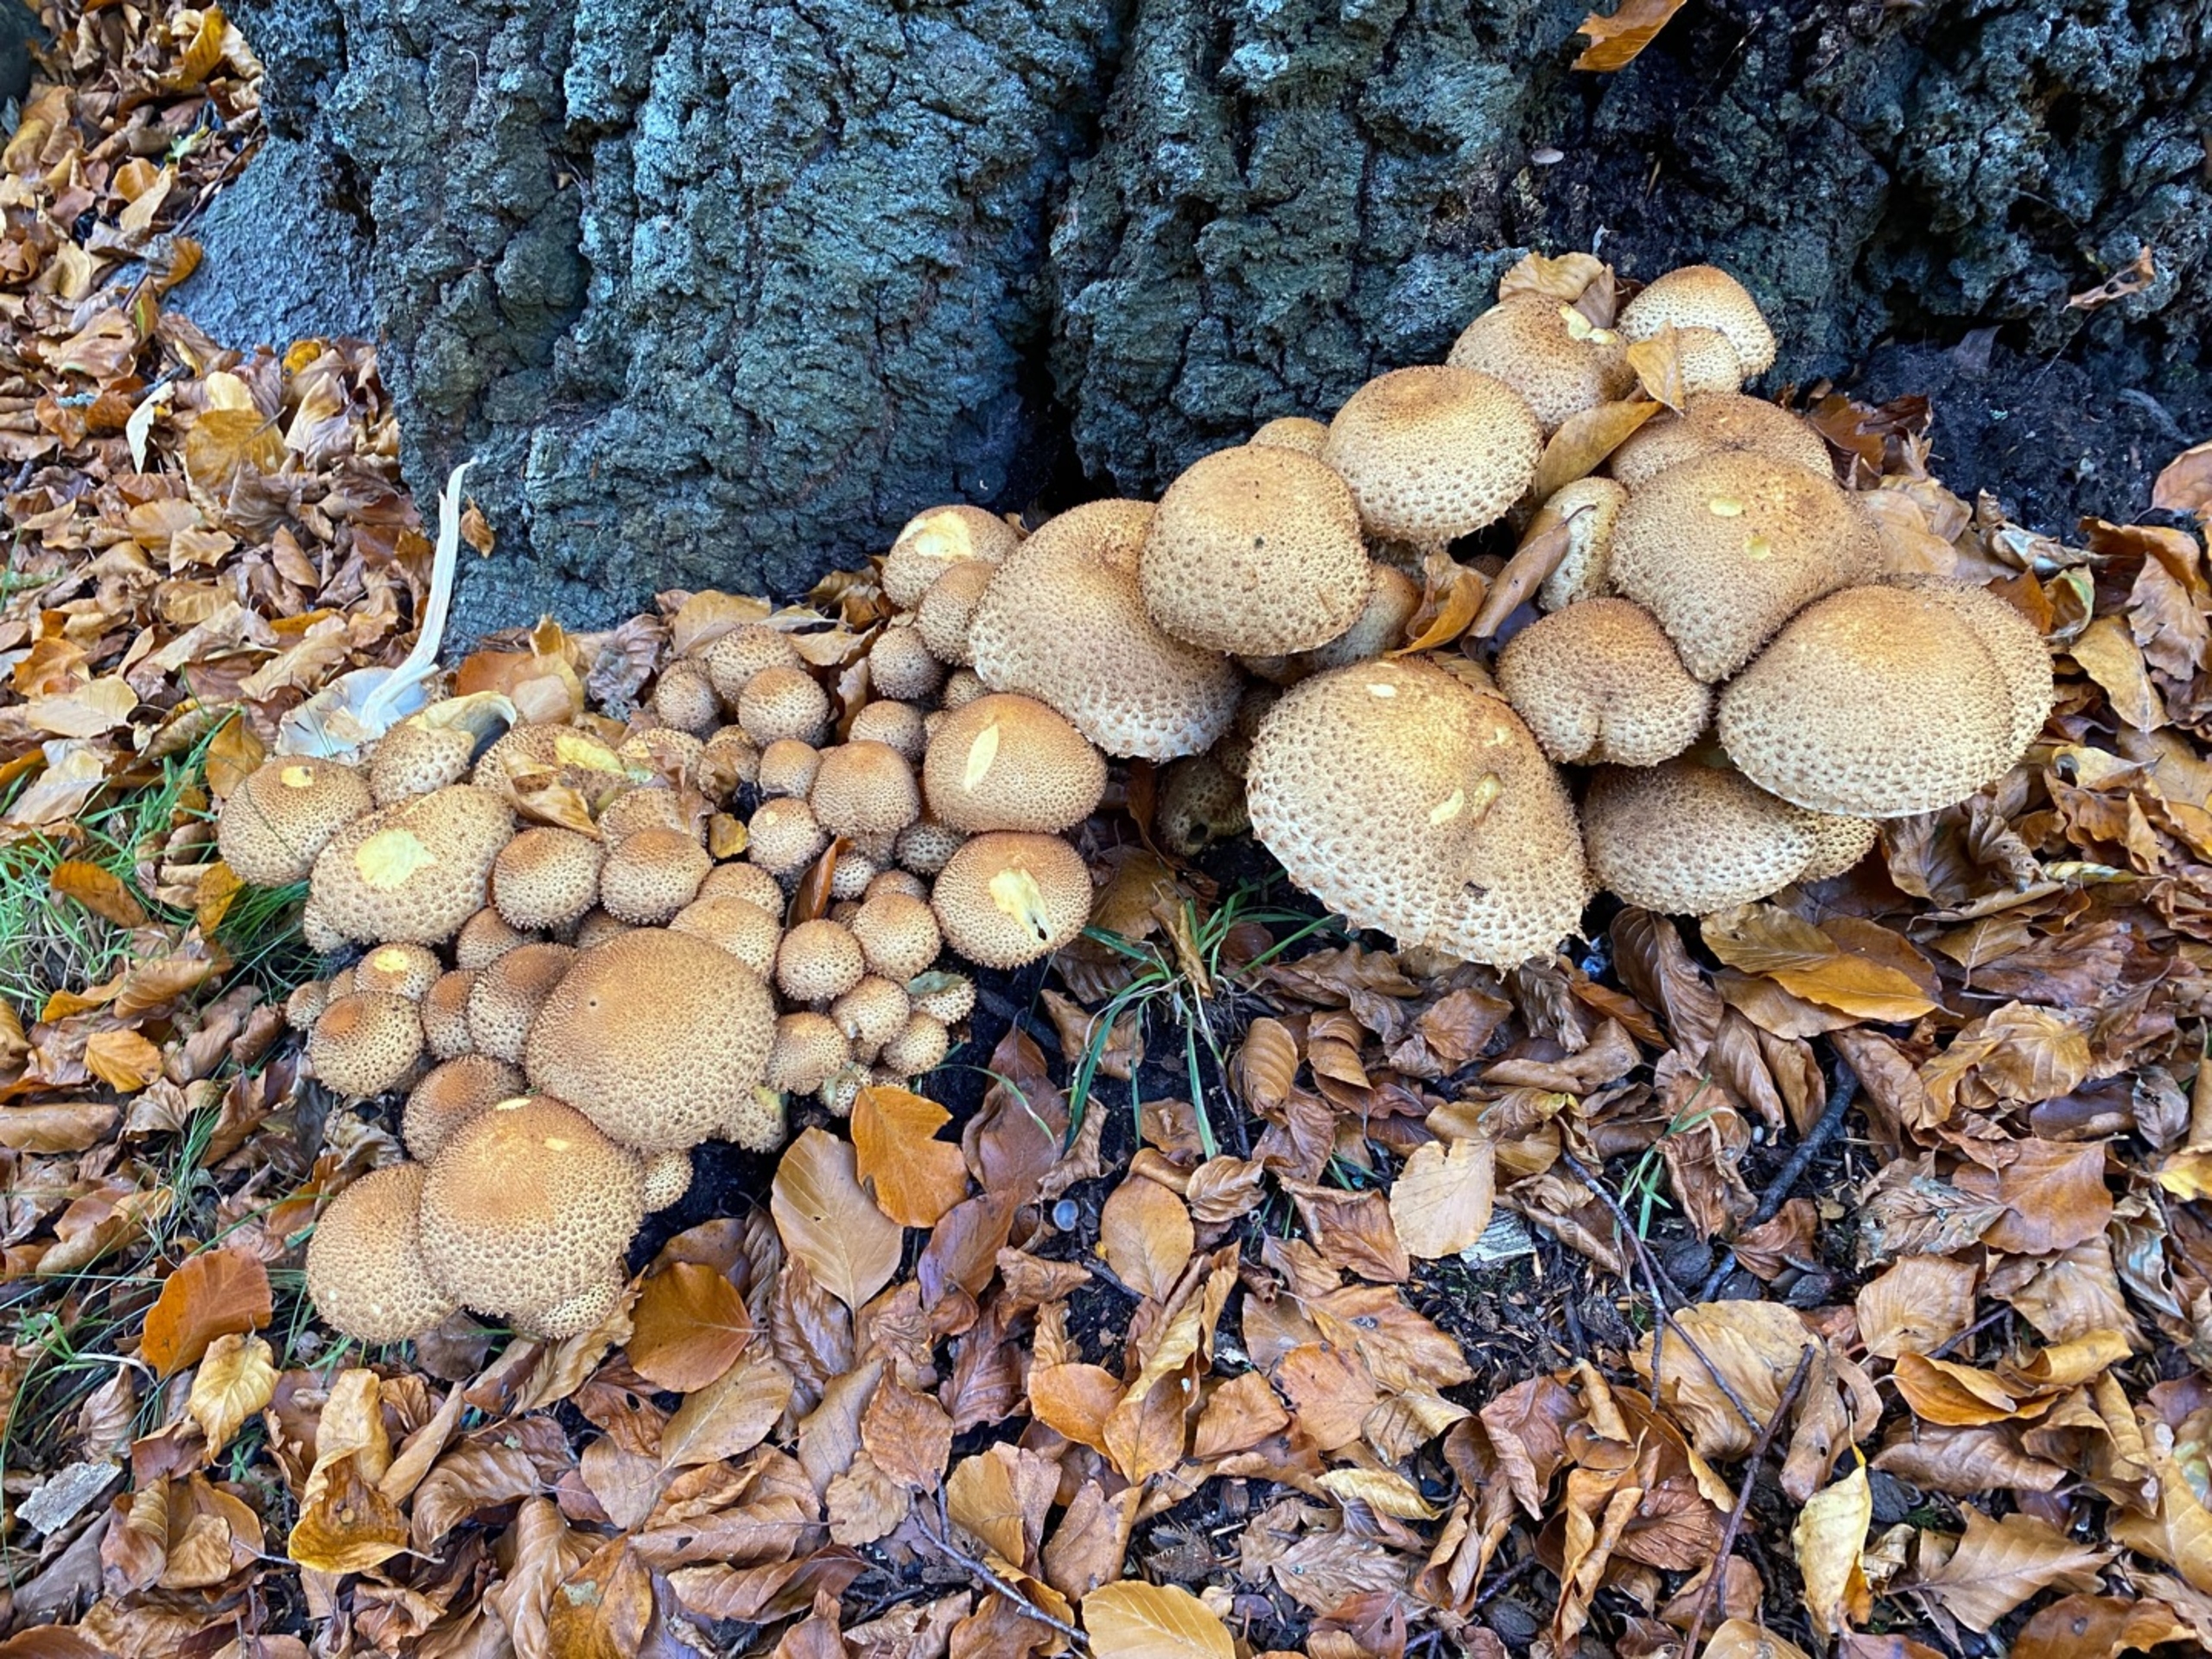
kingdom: Fungi
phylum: Basidiomycota
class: Agaricomycetes
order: Agaricales
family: Strophariaceae
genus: Pholiota
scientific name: Pholiota squarrosa
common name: Krumskællet skælhat
